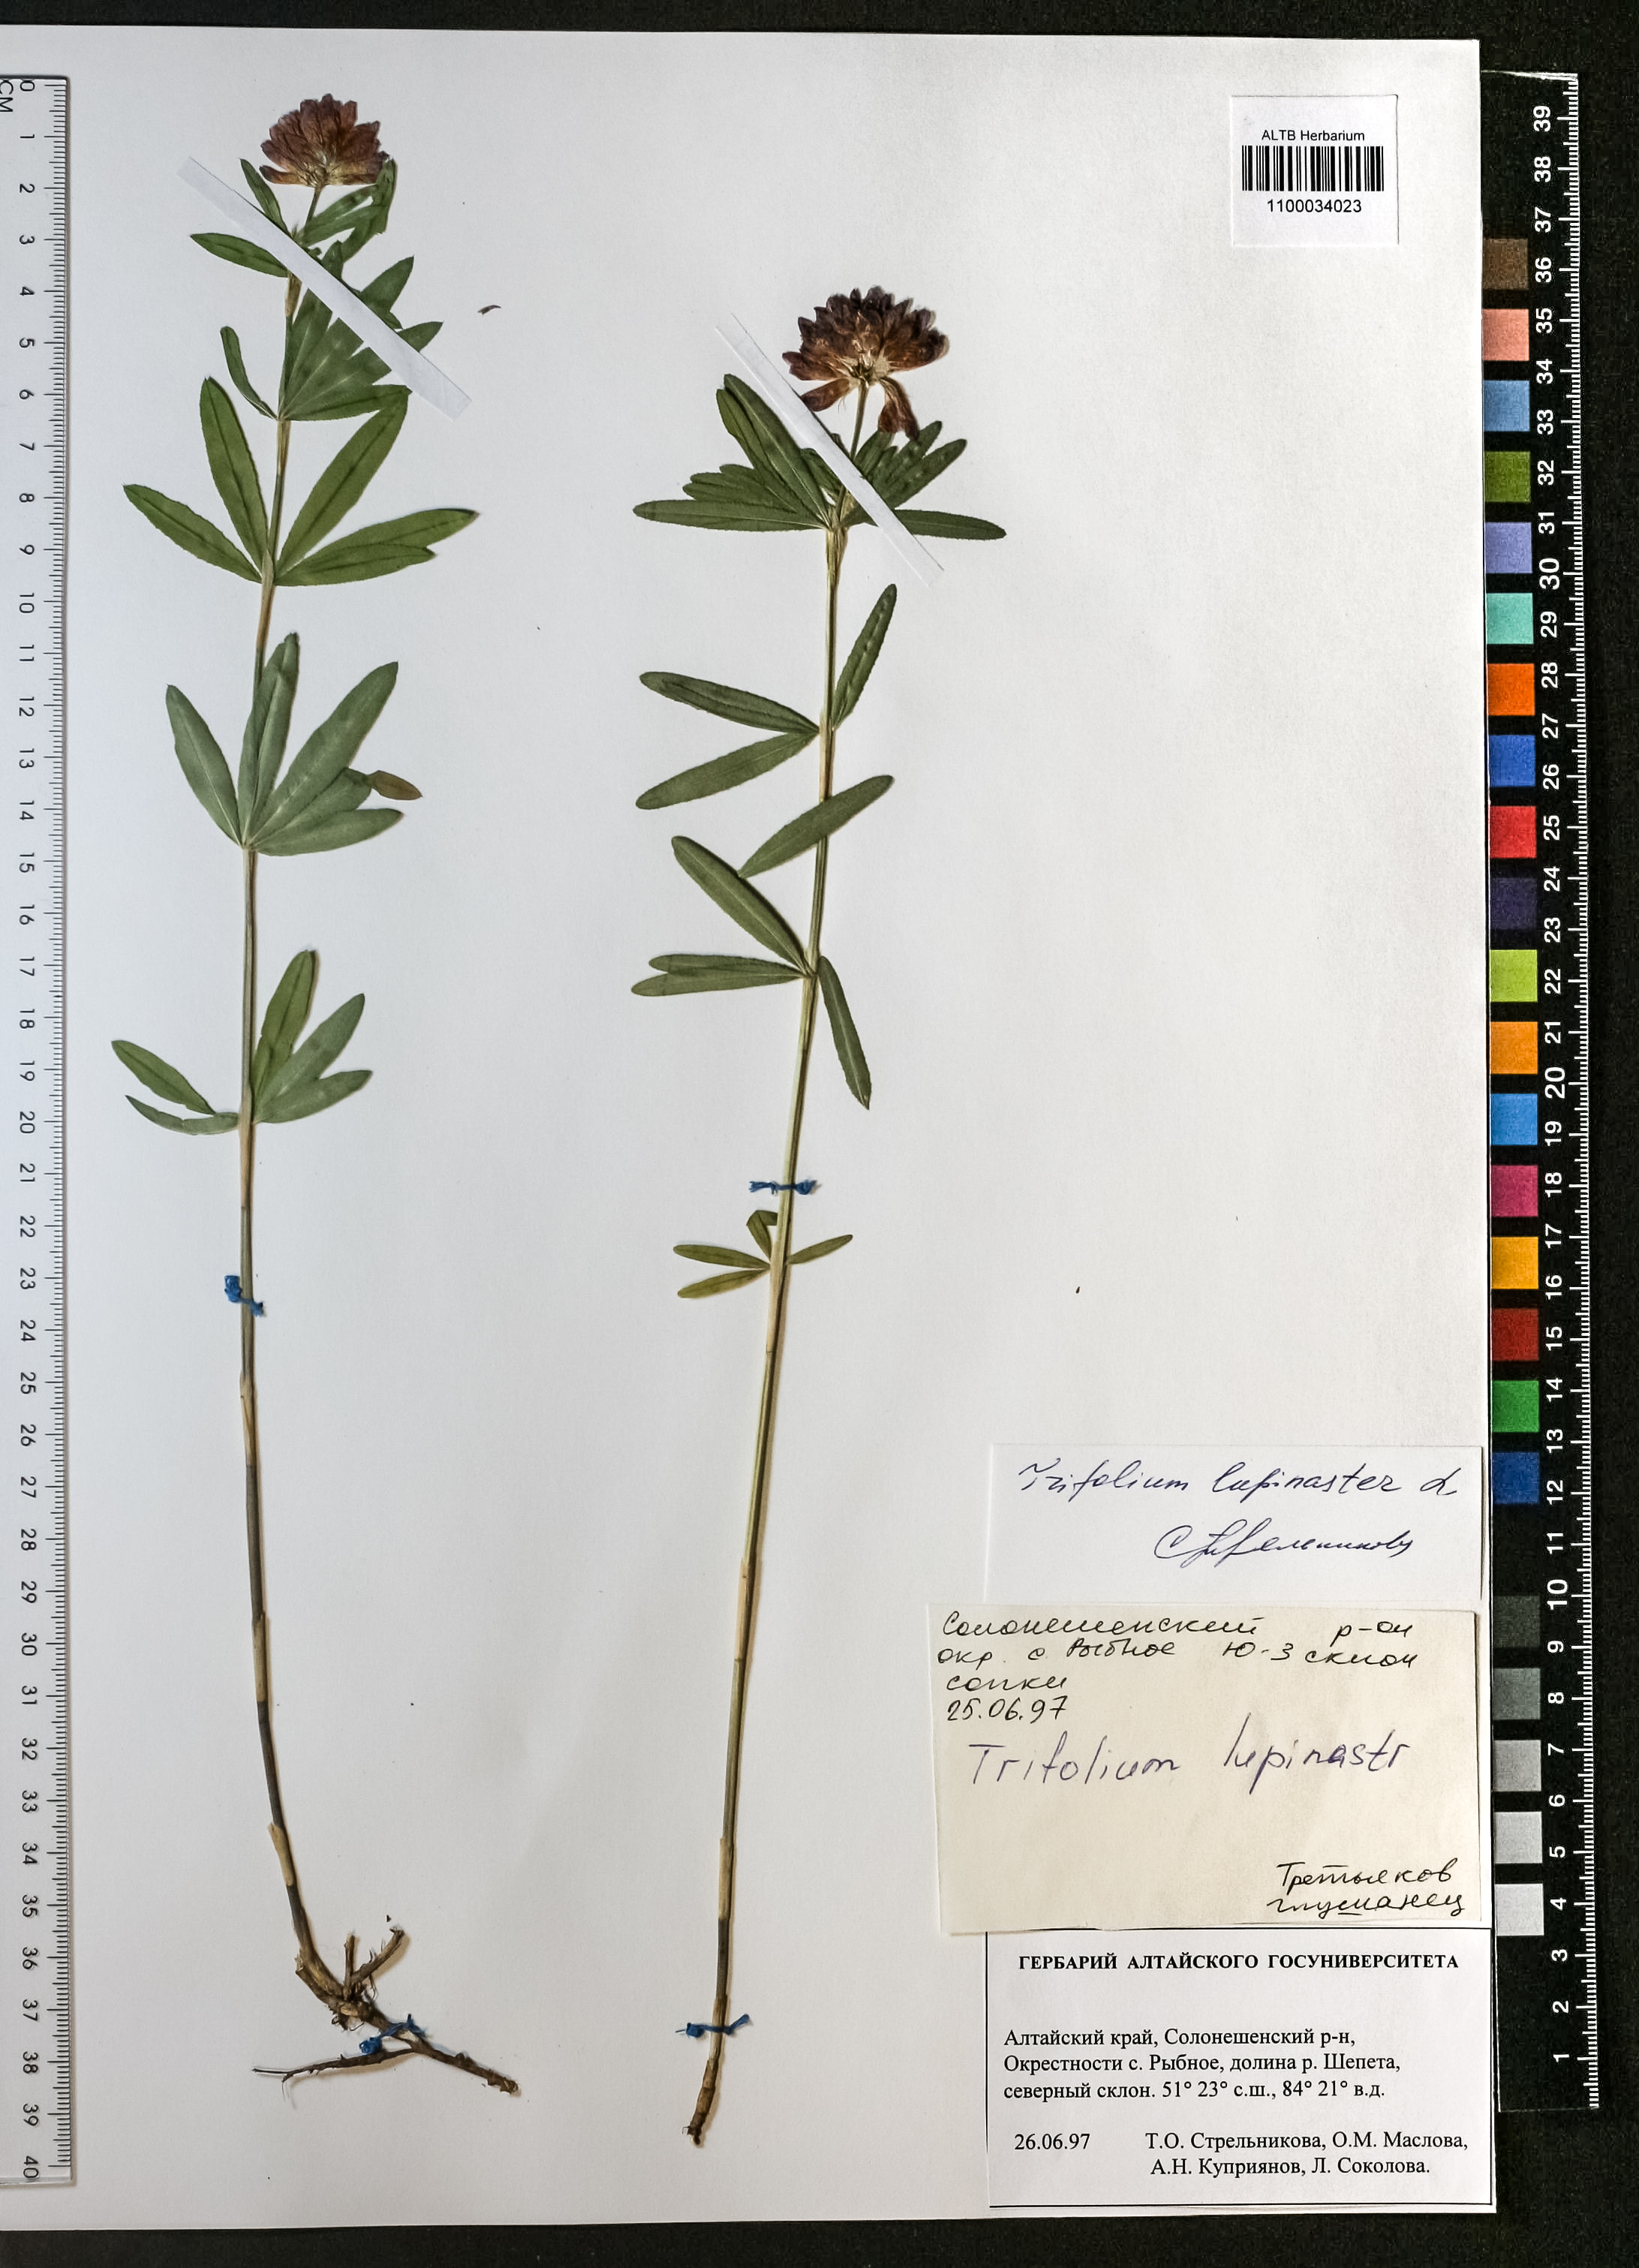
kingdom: Plantae
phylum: Tracheophyta
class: Magnoliopsida
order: Fabales
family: Fabaceae
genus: Trifolium
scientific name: Trifolium lupinaster
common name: Lupine clover
